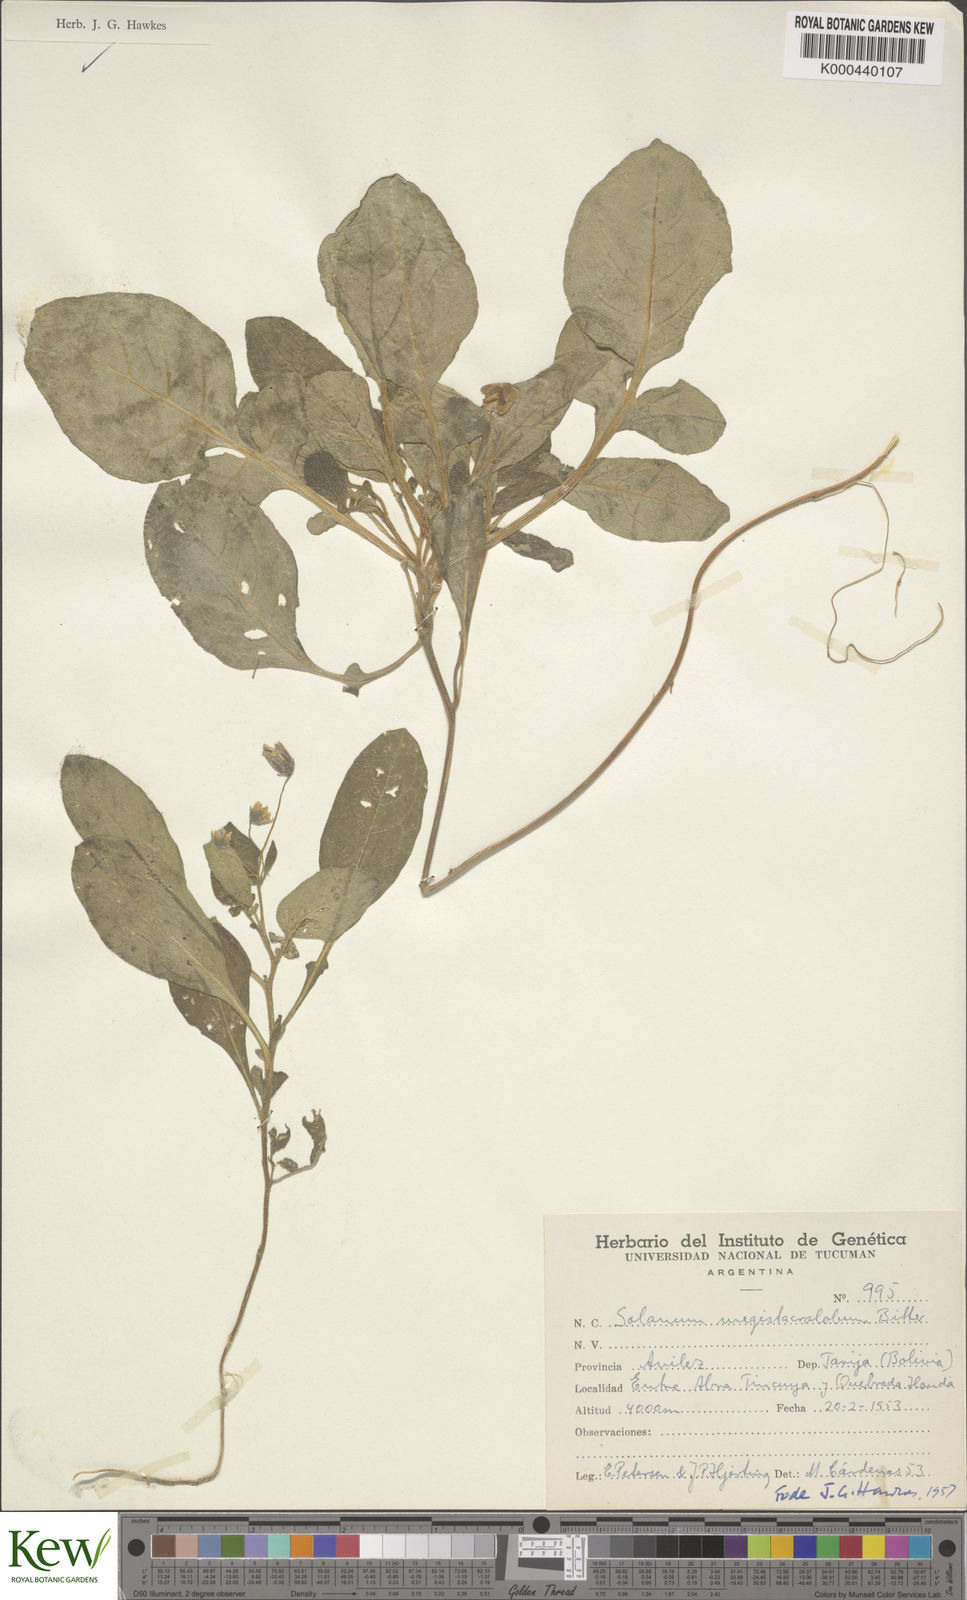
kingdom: Plantae
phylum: Tracheophyta
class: Magnoliopsida
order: Solanales
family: Solanaceae
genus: Solanum
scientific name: Solanum boliviense
